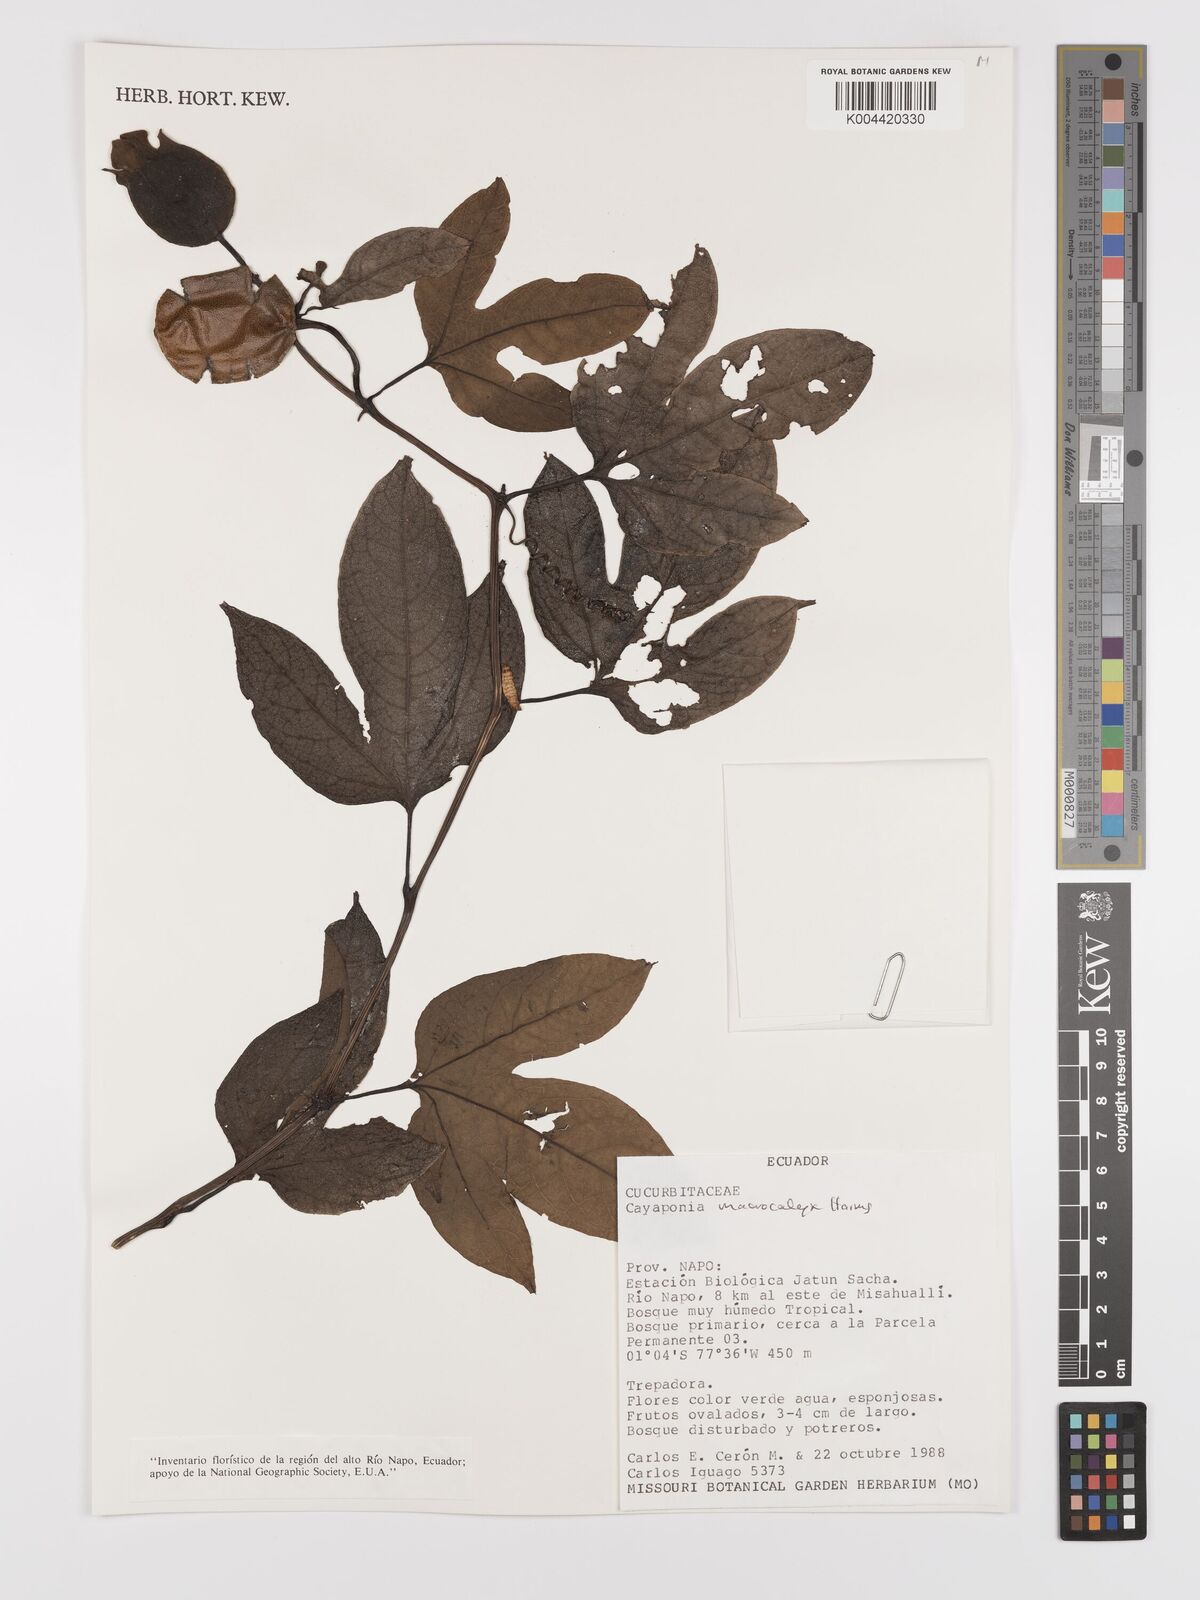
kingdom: Plantae
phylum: Tracheophyta
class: Magnoliopsida
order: Cucurbitales
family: Cucurbitaceae
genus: Cayaponia
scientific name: Cayaponia macrocalyx
